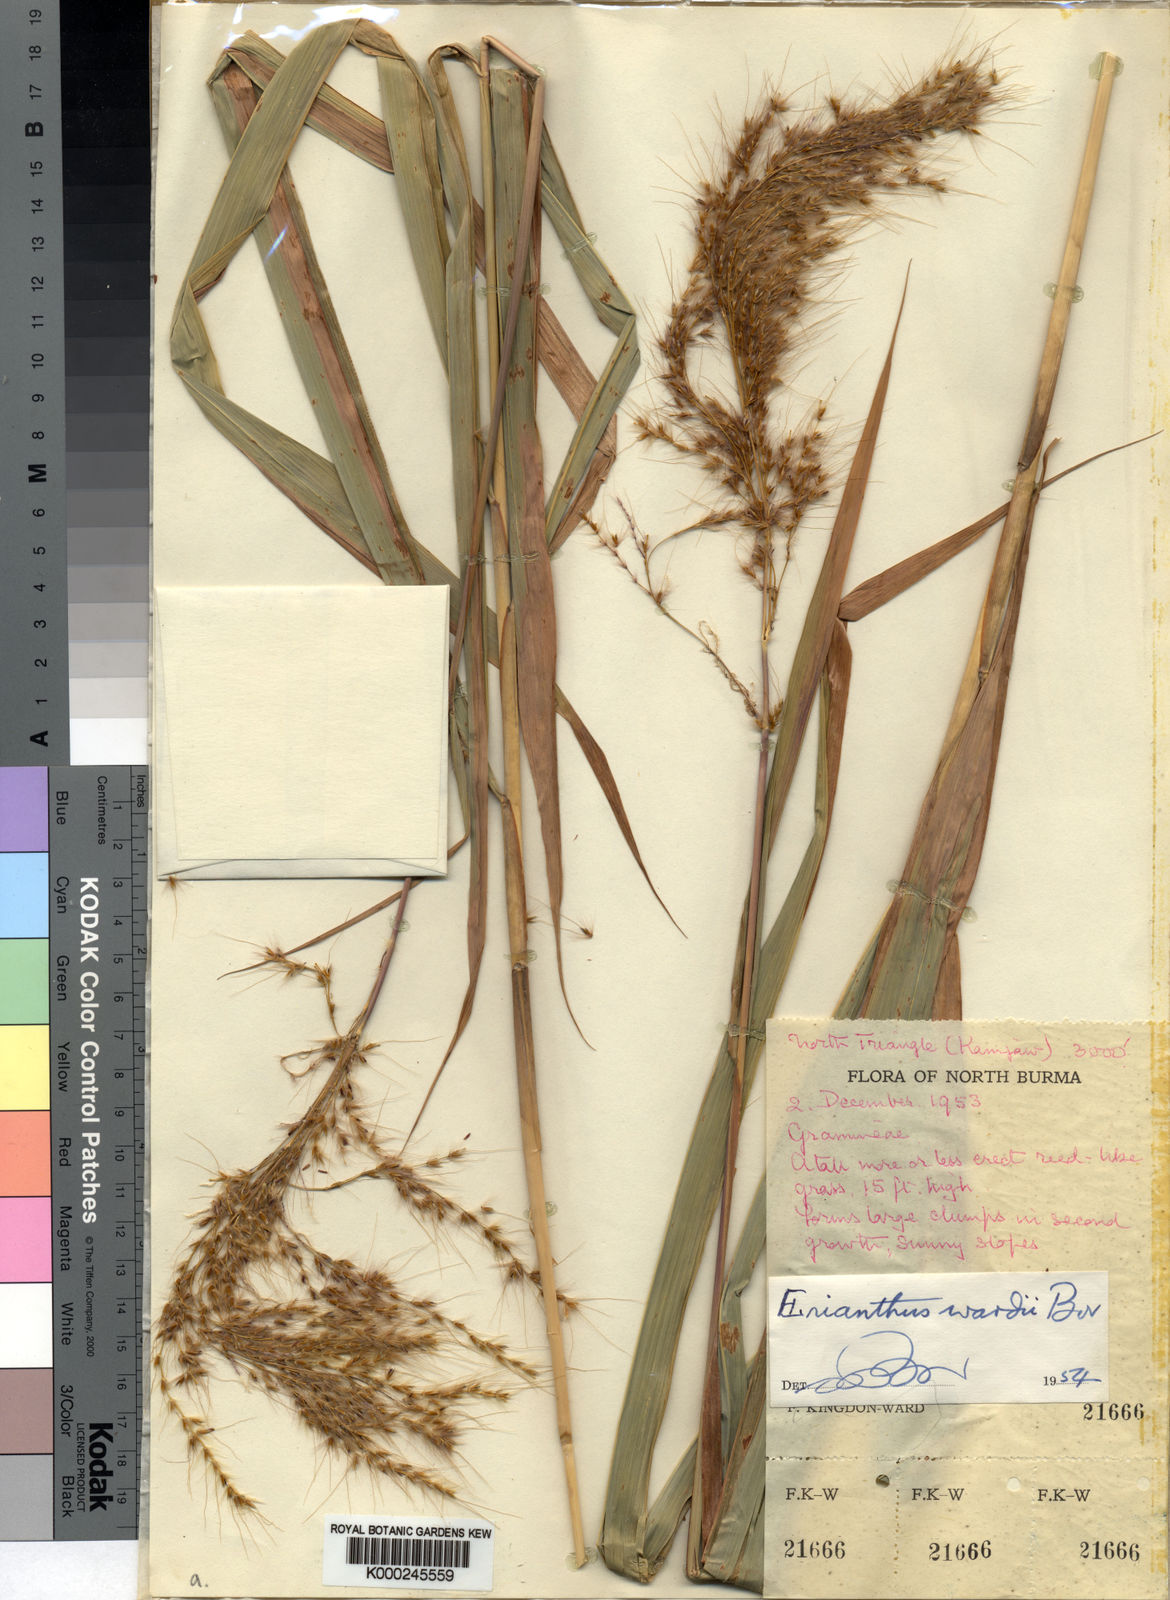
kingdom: Plantae
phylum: Tracheophyta
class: Liliopsida
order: Poales
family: Poaceae
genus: Saccharum
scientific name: Saccharum wardii
